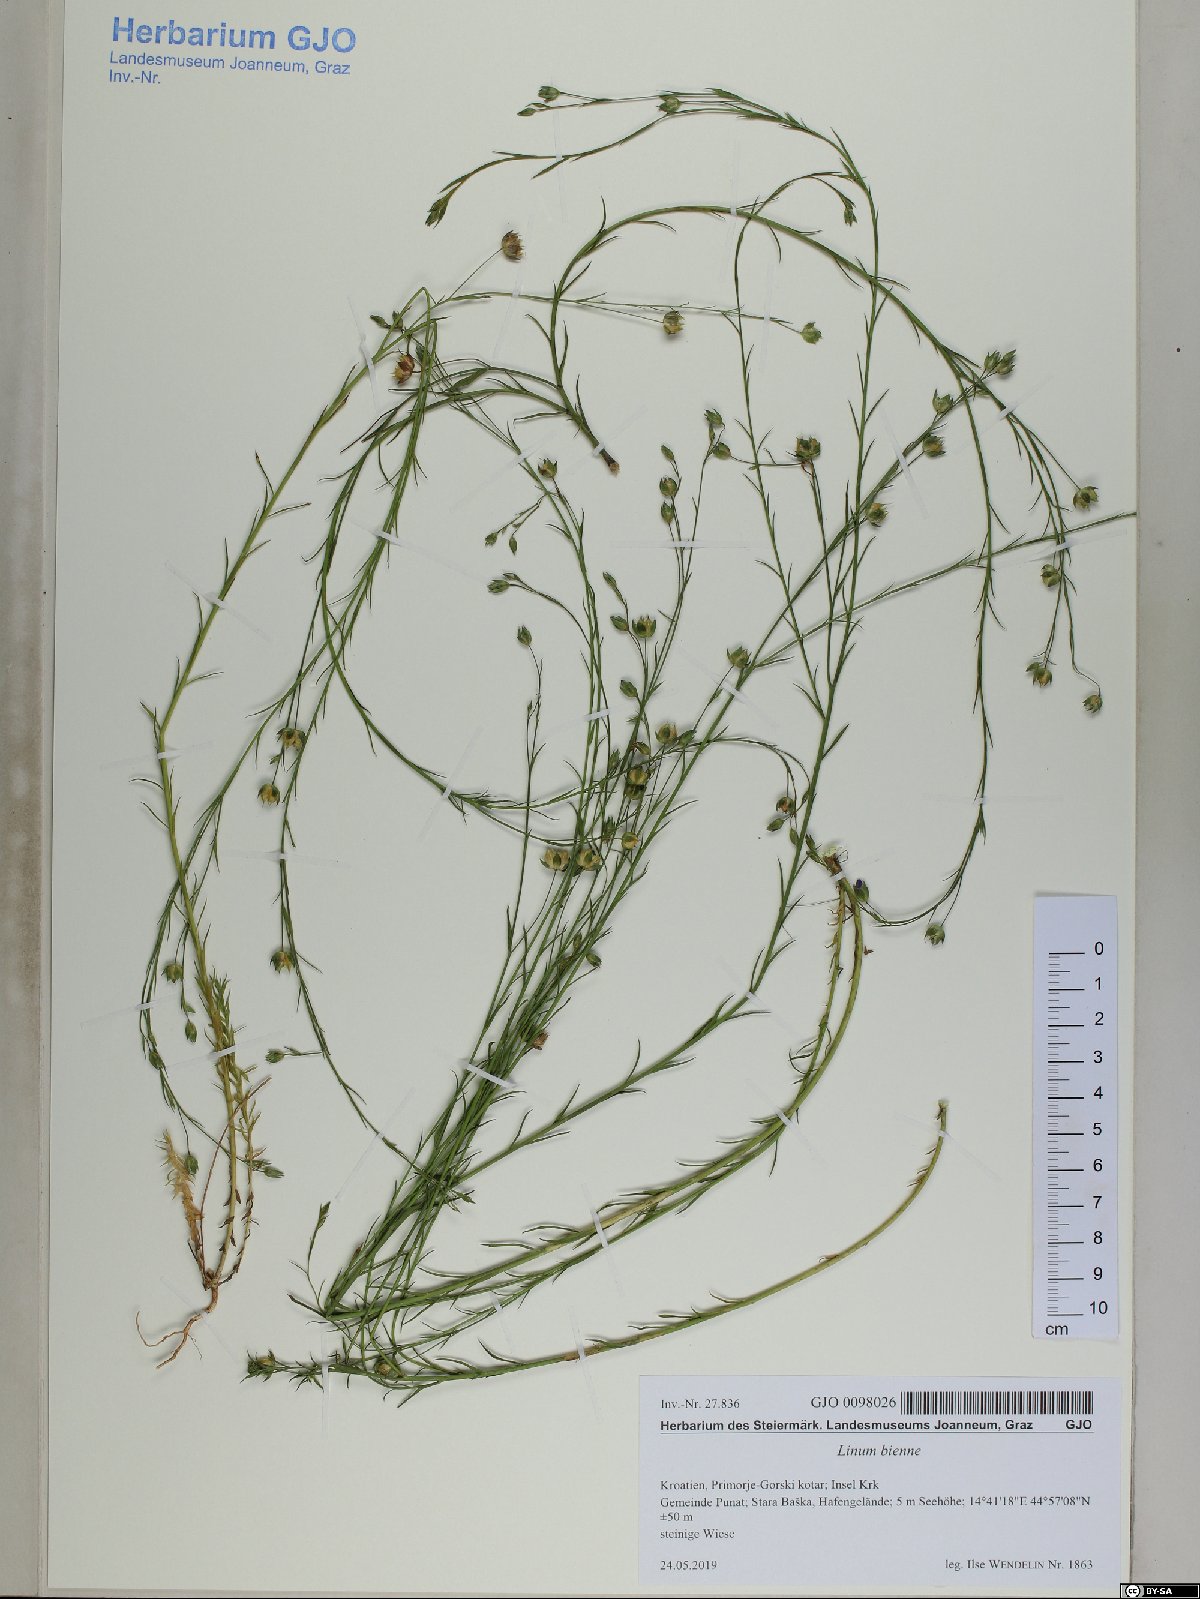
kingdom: Plantae
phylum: Tracheophyta
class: Magnoliopsida
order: Malpighiales
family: Linaceae
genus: Linum
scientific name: Linum bienne
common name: Pale flax
